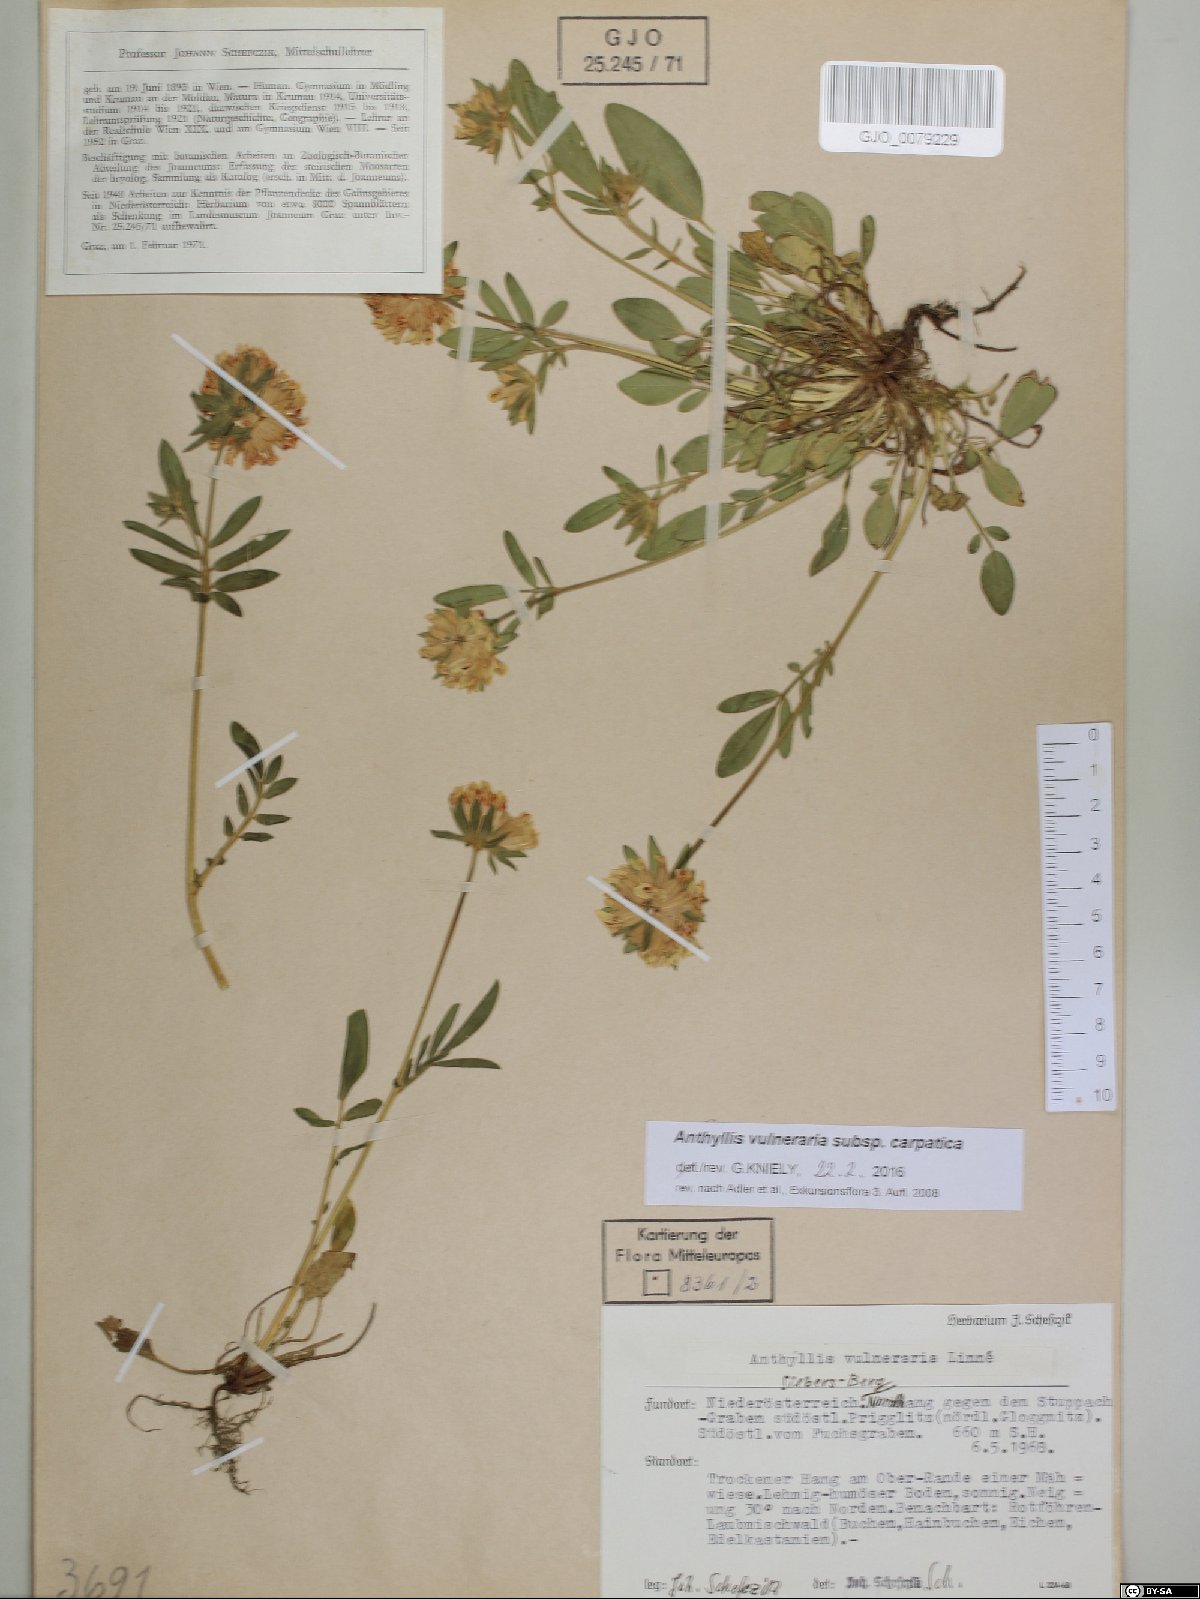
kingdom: Plantae
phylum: Tracheophyta
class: Magnoliopsida
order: Fabales
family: Fabaceae
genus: Anthyllis
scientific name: Anthyllis vulneraria
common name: Kidney vetch
